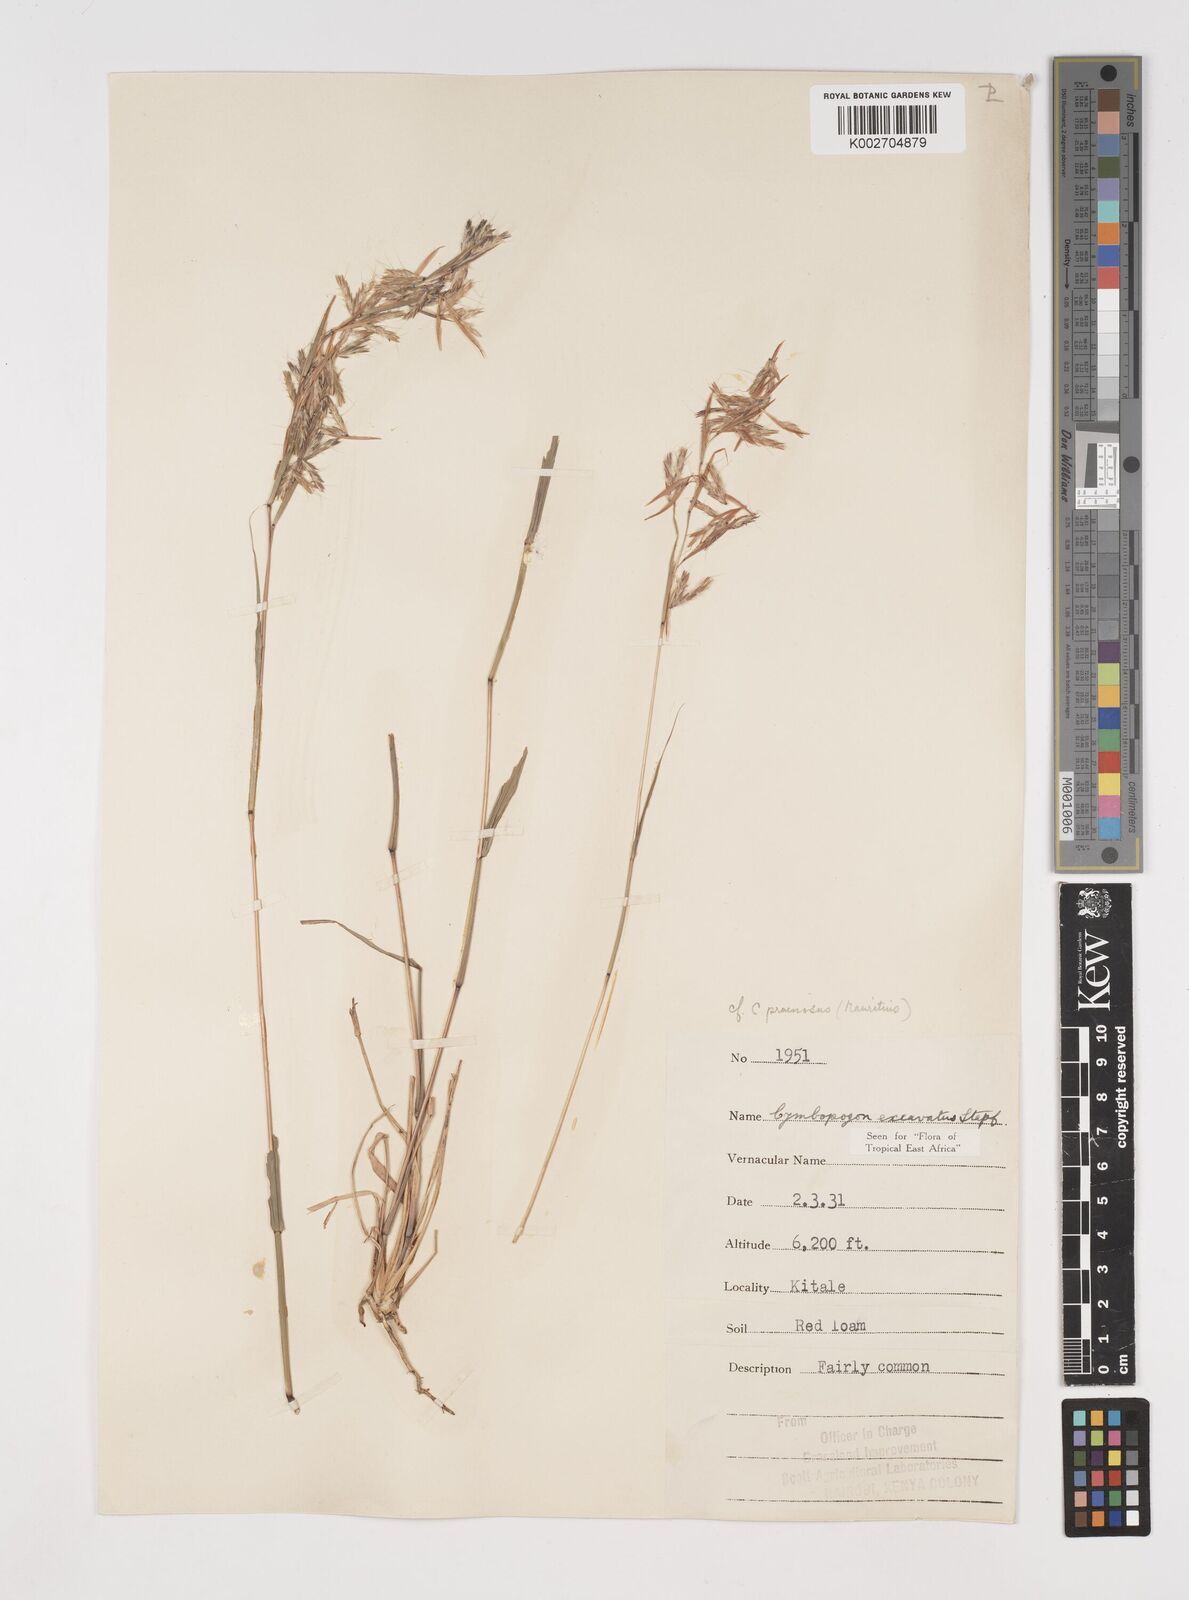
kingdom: Plantae
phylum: Tracheophyta
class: Liliopsida
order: Poales
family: Poaceae
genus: Cymbopogon
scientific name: Cymbopogon caesius
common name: Kachi grass
